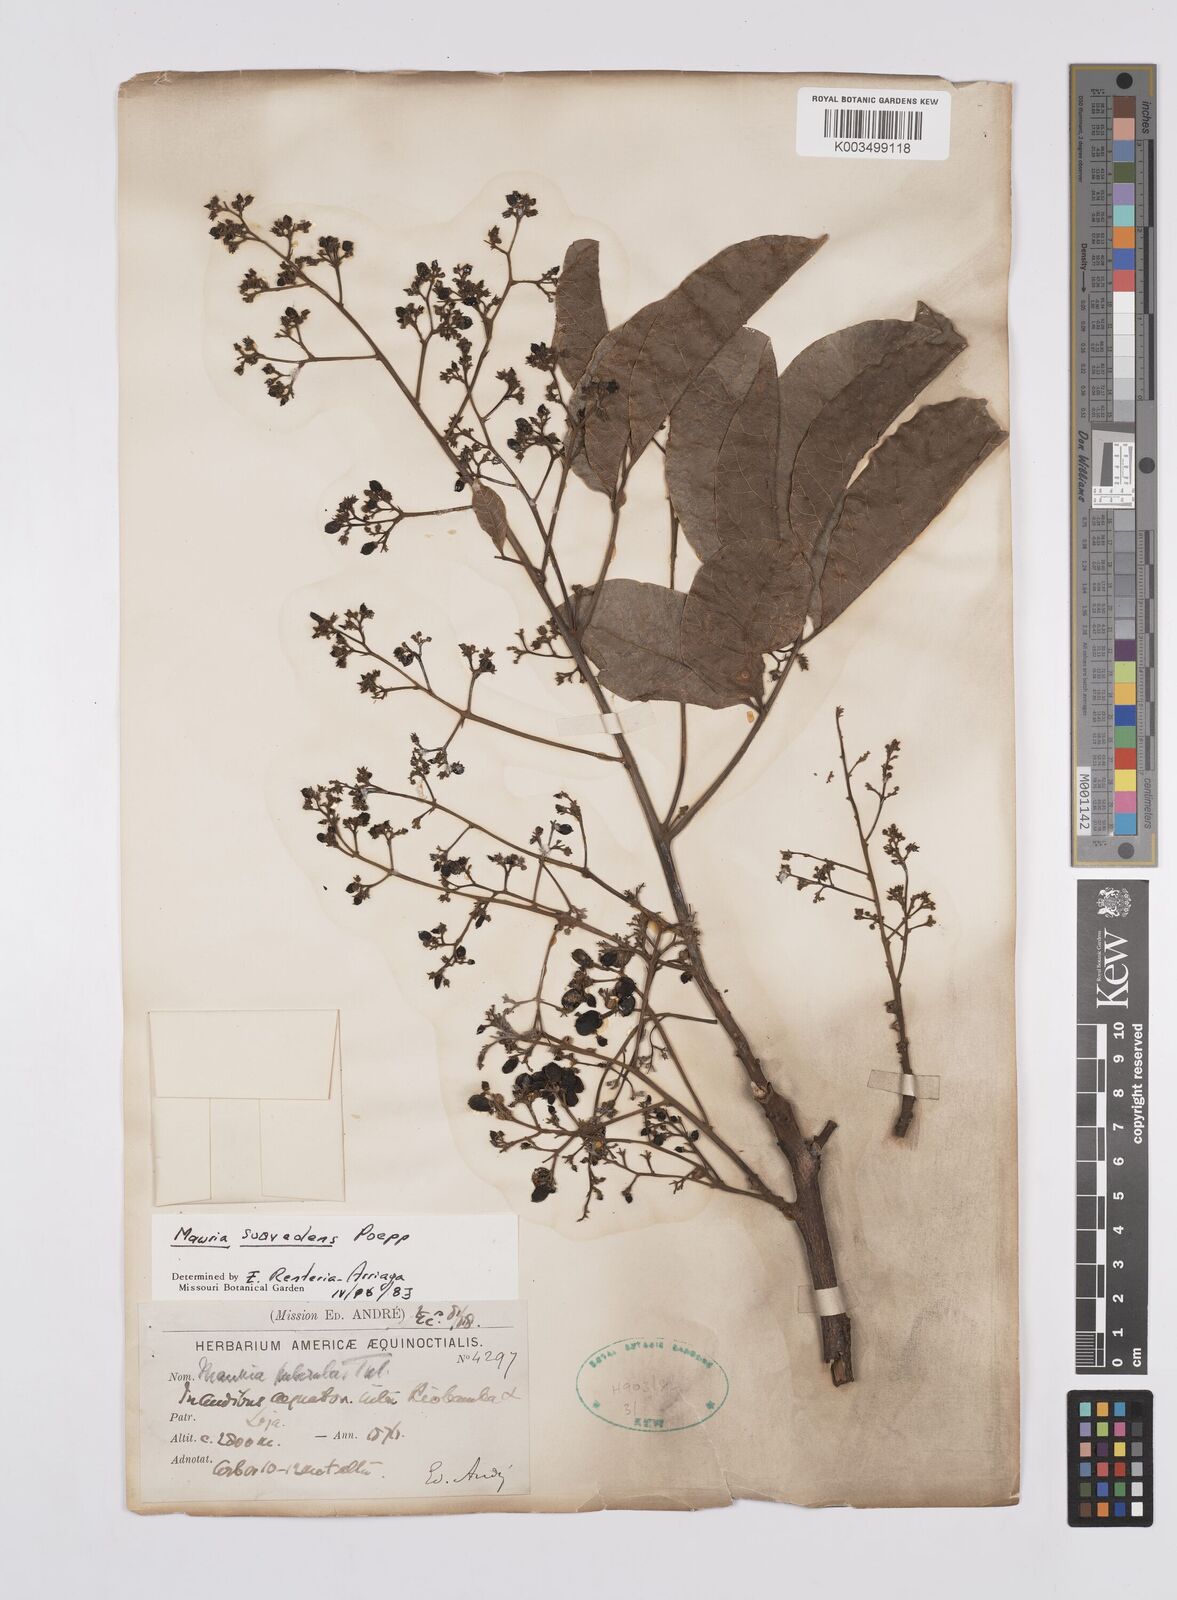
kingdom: Plantae
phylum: Tracheophyta
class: Magnoliopsida
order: Sapindales
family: Anacardiaceae
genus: Mauria
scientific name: Mauria heterophylla
